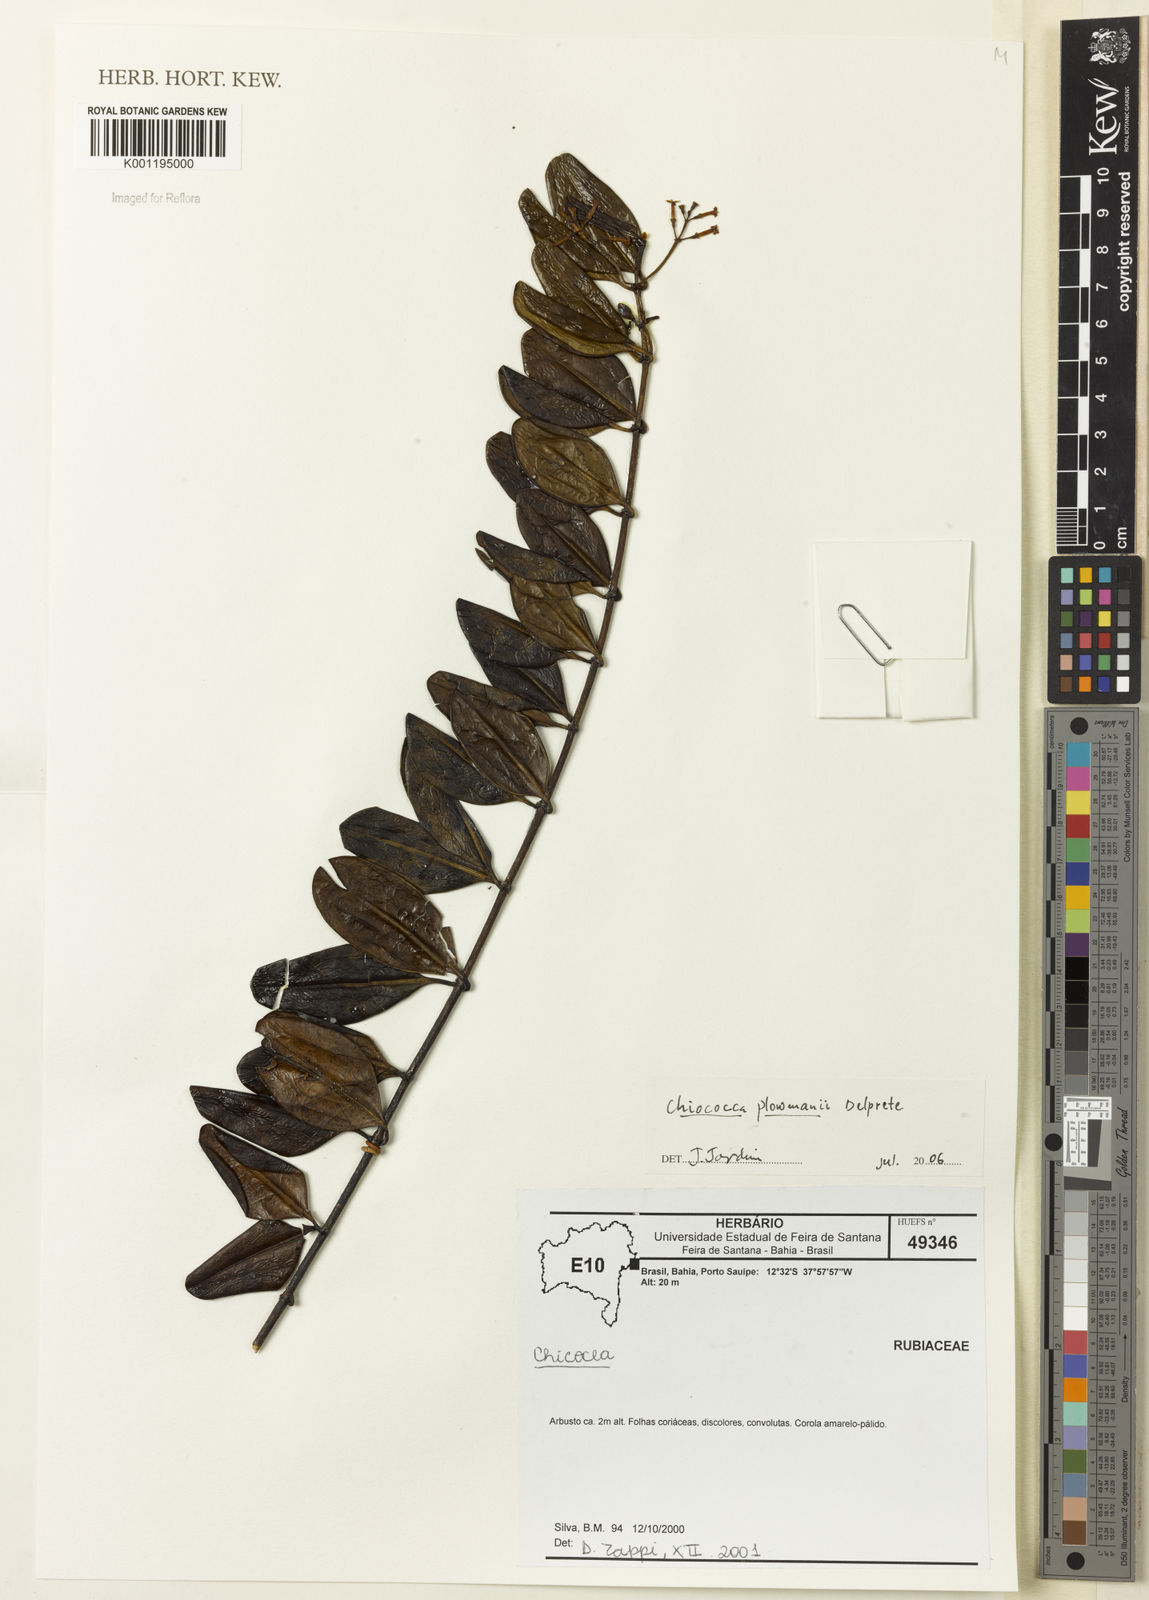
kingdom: Plantae
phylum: Tracheophyta
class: Magnoliopsida
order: Gentianales
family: Rubiaceae
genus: Salzmannia
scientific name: Salzmannia plowmanii
